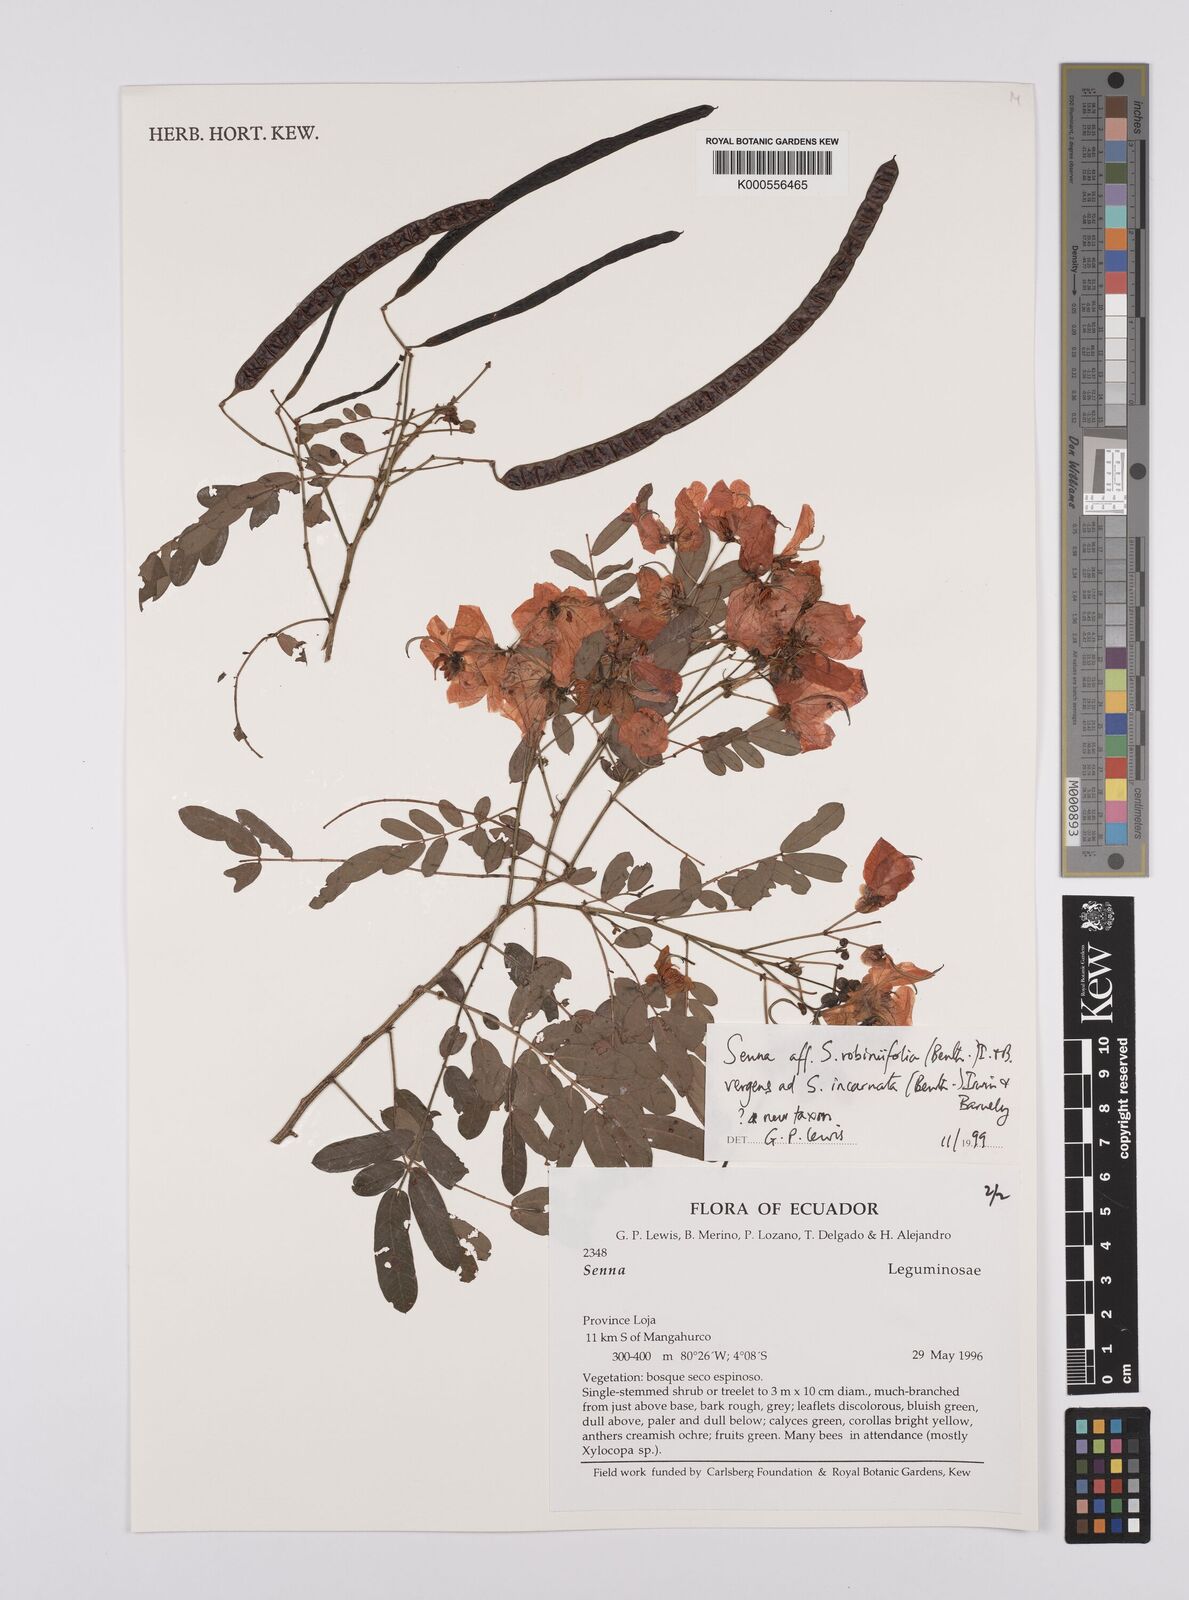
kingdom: Plantae
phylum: Tracheophyta
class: Magnoliopsida
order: Fabales
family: Fabaceae
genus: Senna
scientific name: Senna robiniifolia
